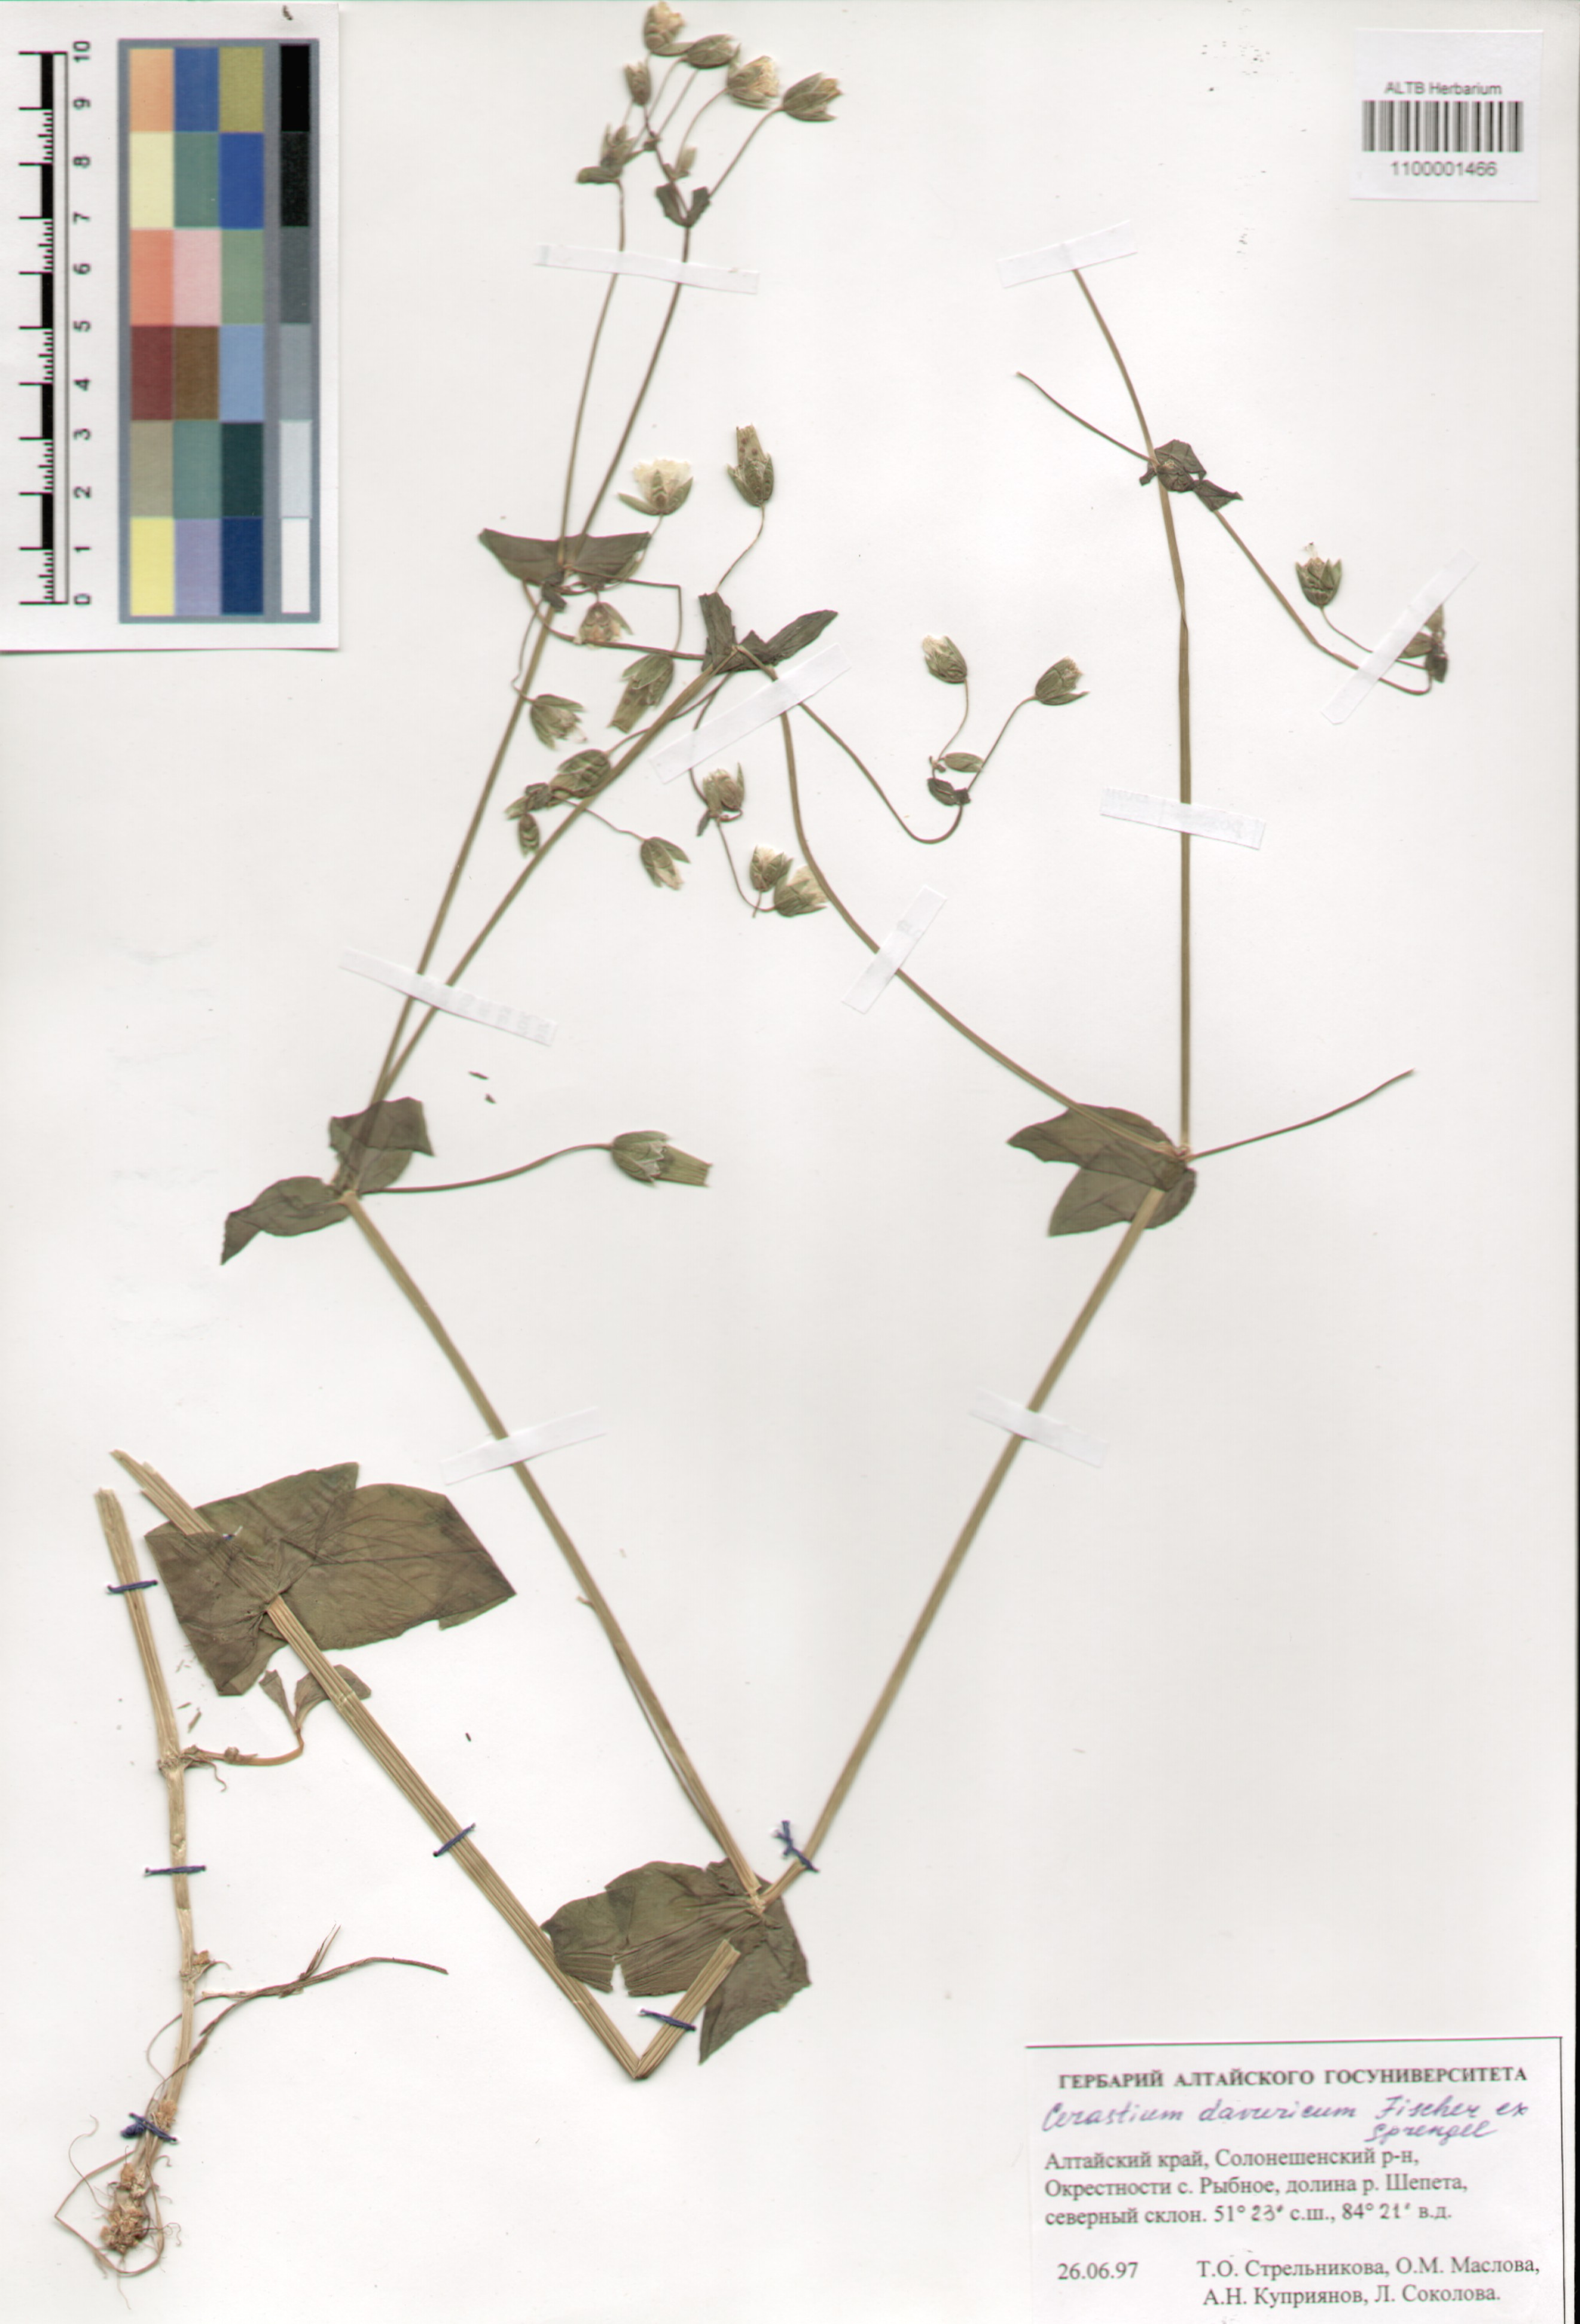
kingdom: Plantae
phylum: Tracheophyta
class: Magnoliopsida
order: Caryophyllales
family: Caryophyllaceae
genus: Dichodon
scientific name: Dichodon davuricum
